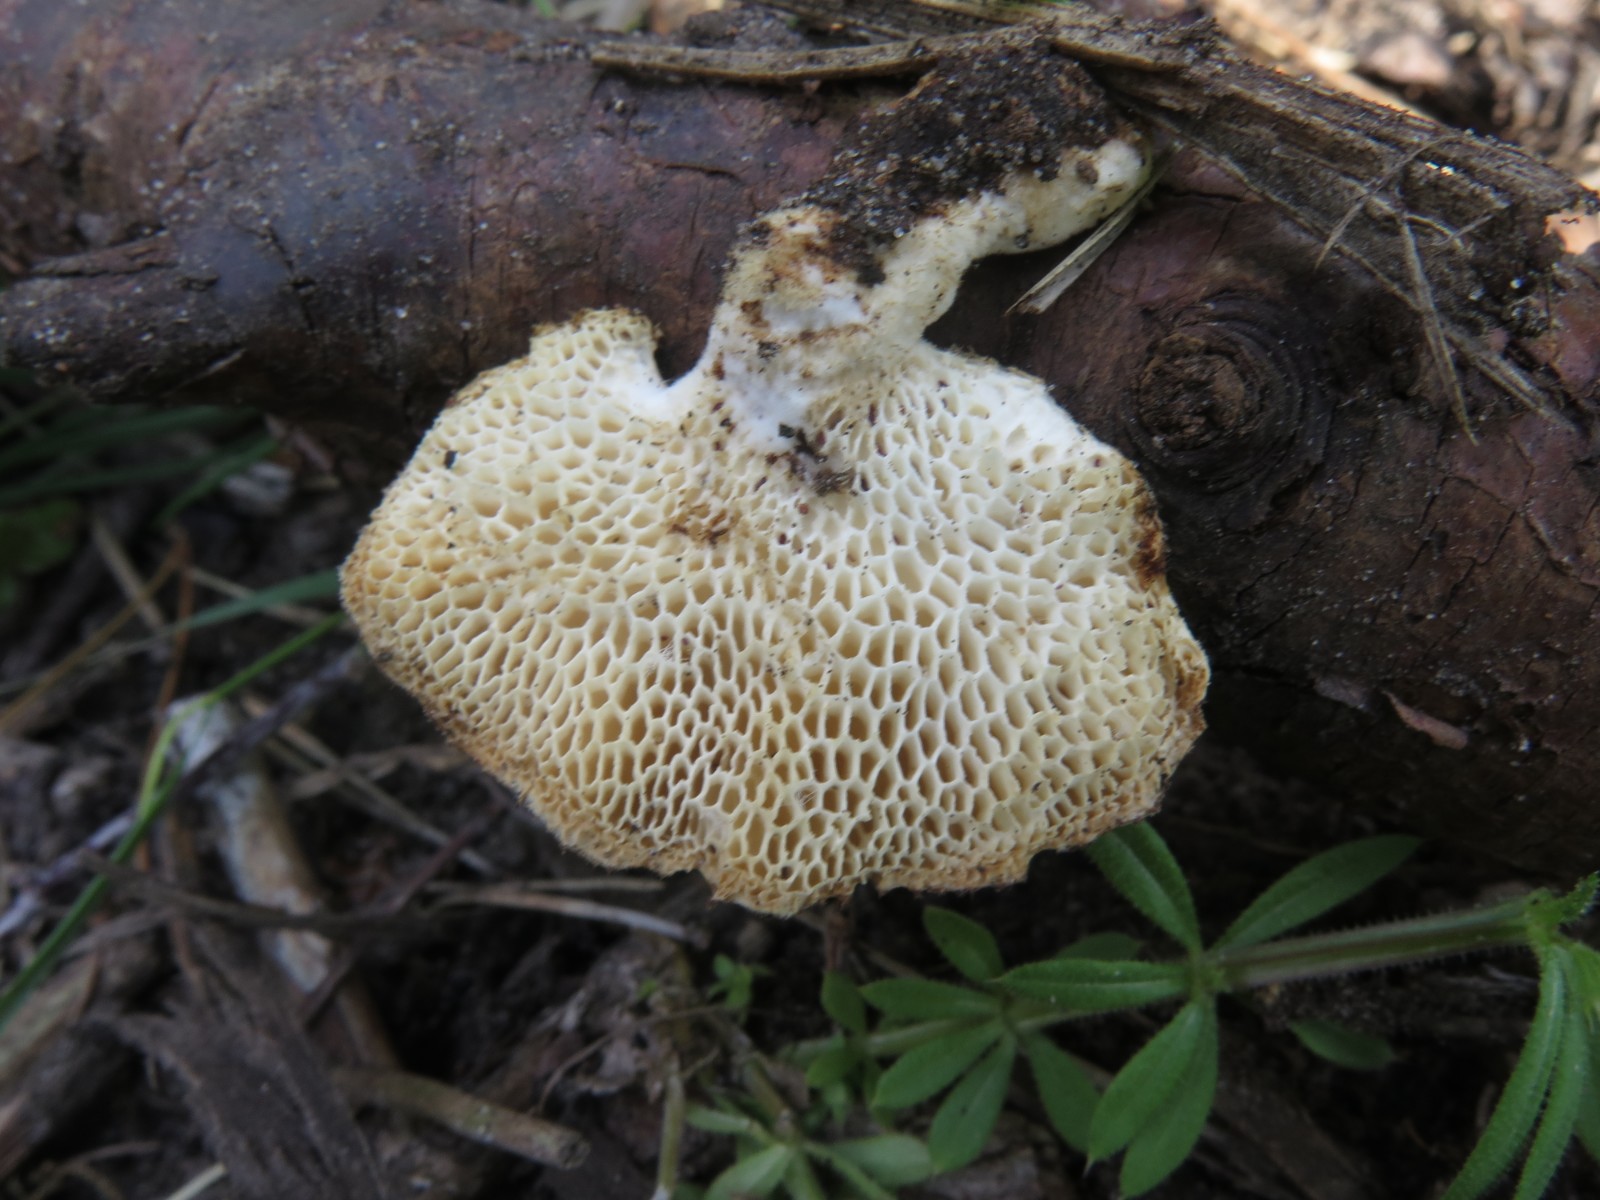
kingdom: Fungi
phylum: Basidiomycota
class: Agaricomycetes
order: Polyporales
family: Polyporaceae
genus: Polyporus
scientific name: Polyporus tuberaster
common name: knoldet stilkporesvamp
